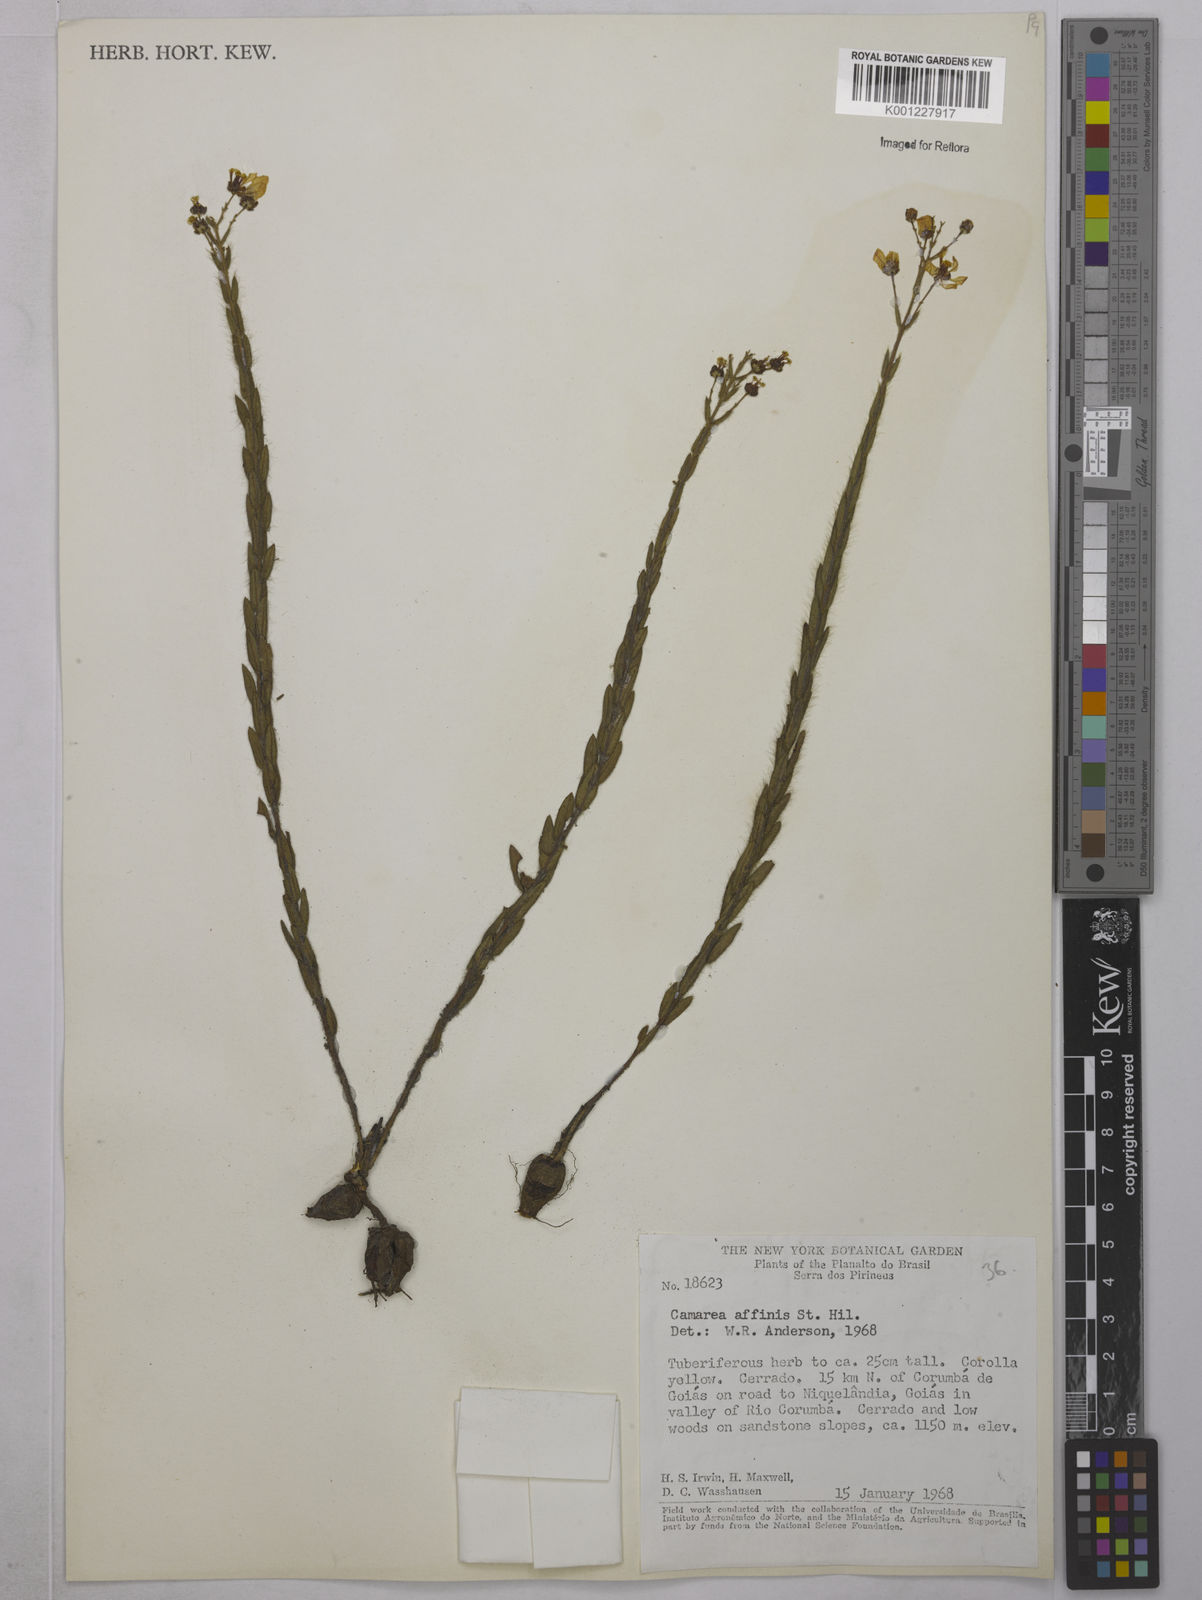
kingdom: Plantae
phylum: Tracheophyta
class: Magnoliopsida
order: Malpighiales
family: Malpighiaceae
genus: Camarea
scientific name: Camarea affinis
